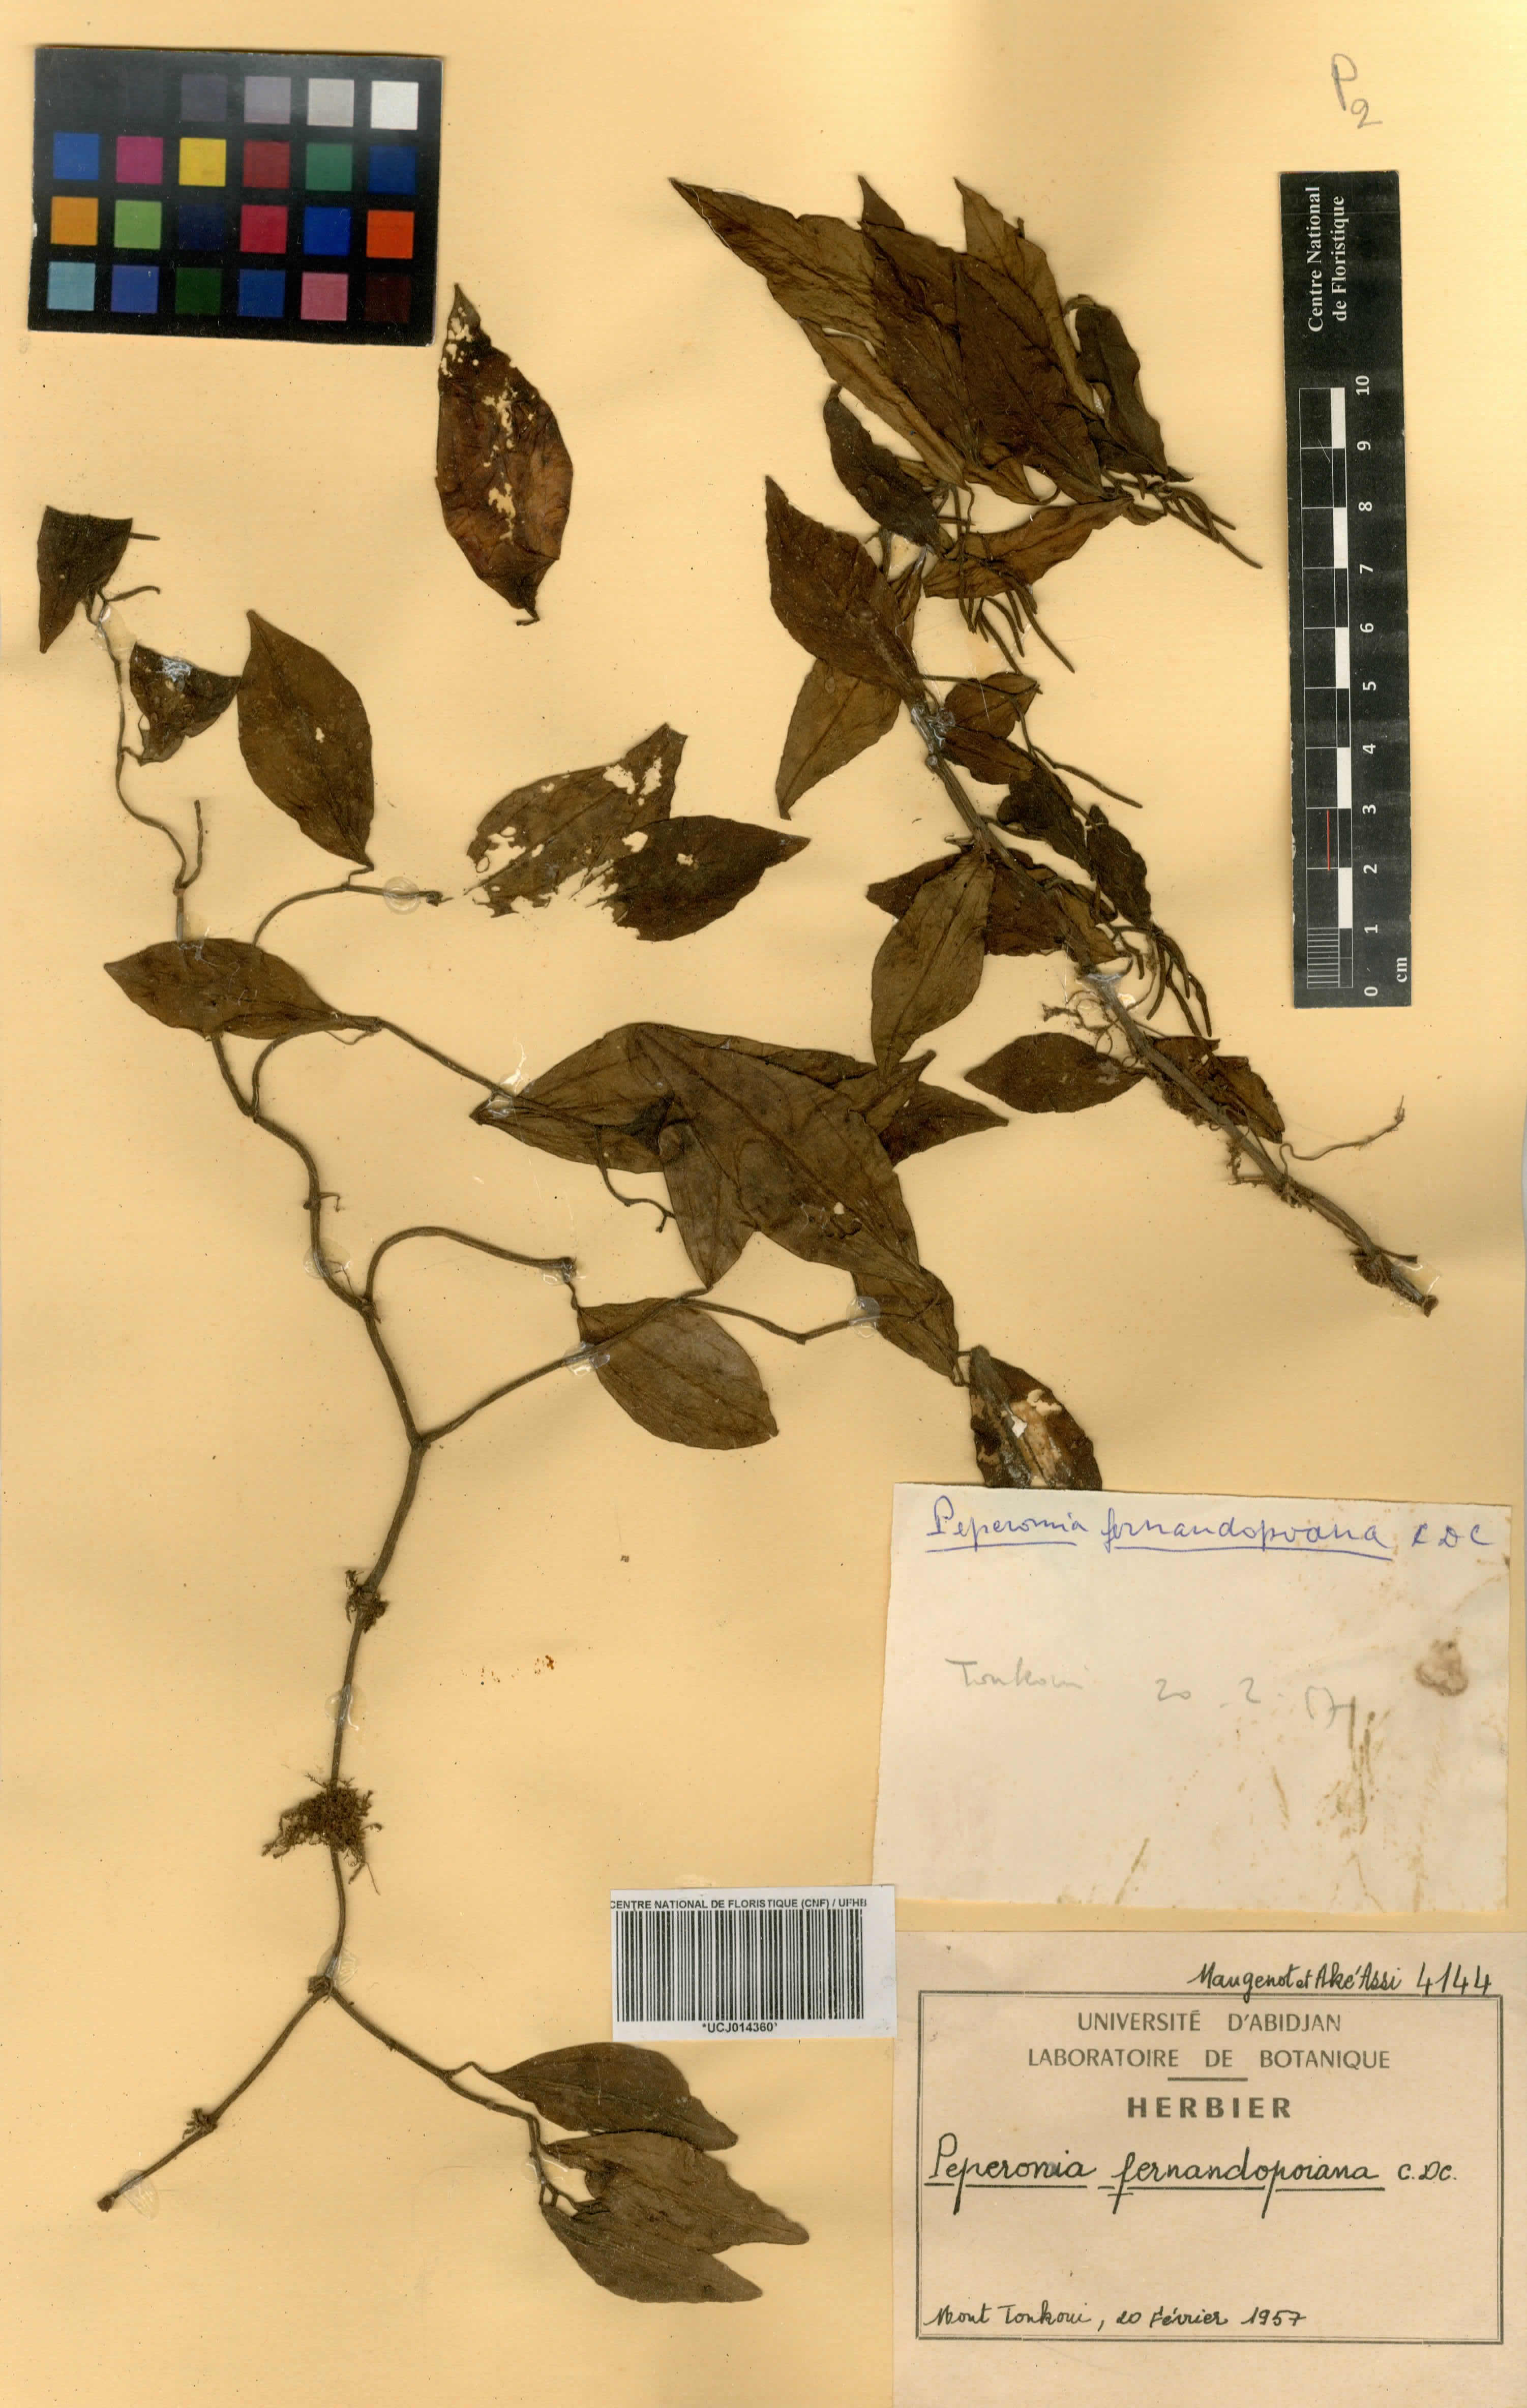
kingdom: Plantae
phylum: Tracheophyta
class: Magnoliopsida
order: Piperales
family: Piperaceae
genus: Peperomia
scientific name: Peperomia fernandopoiana
